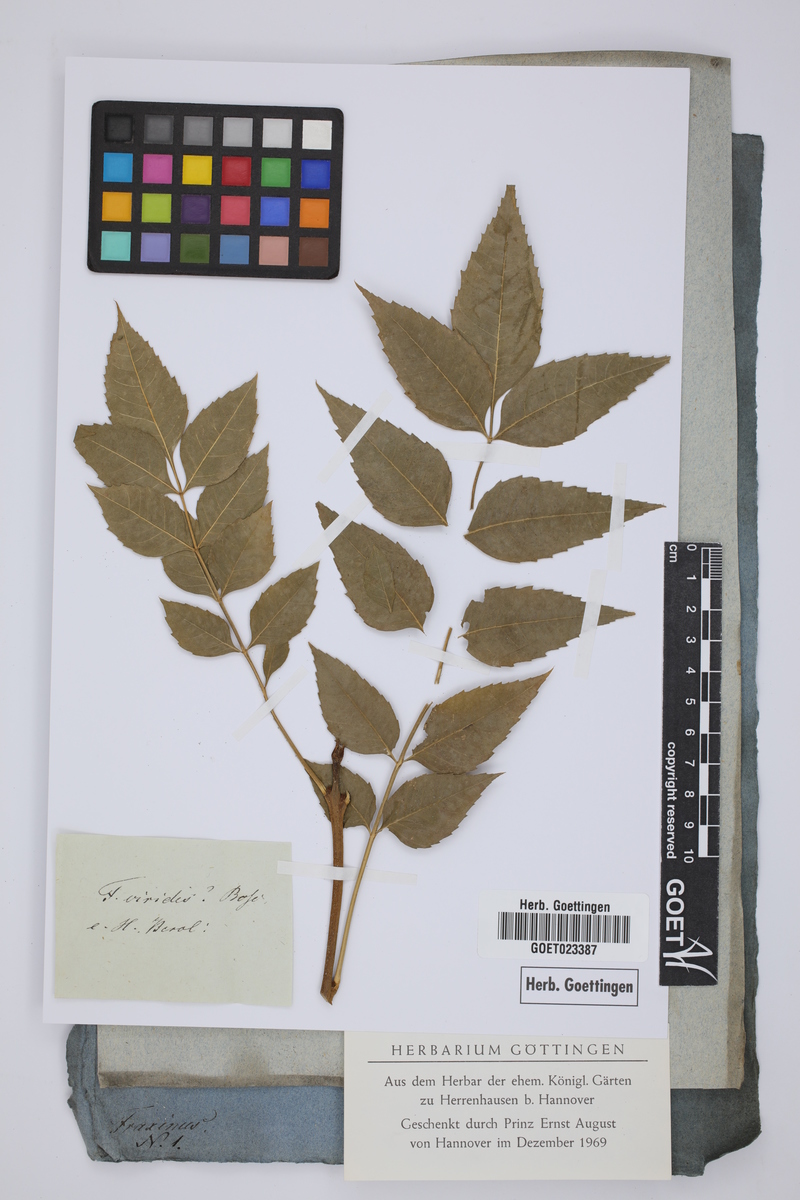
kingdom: Plantae
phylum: Tracheophyta
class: Magnoliopsida
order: Lamiales
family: Oleaceae
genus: Fraxinus
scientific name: Fraxinus americana
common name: White ash
